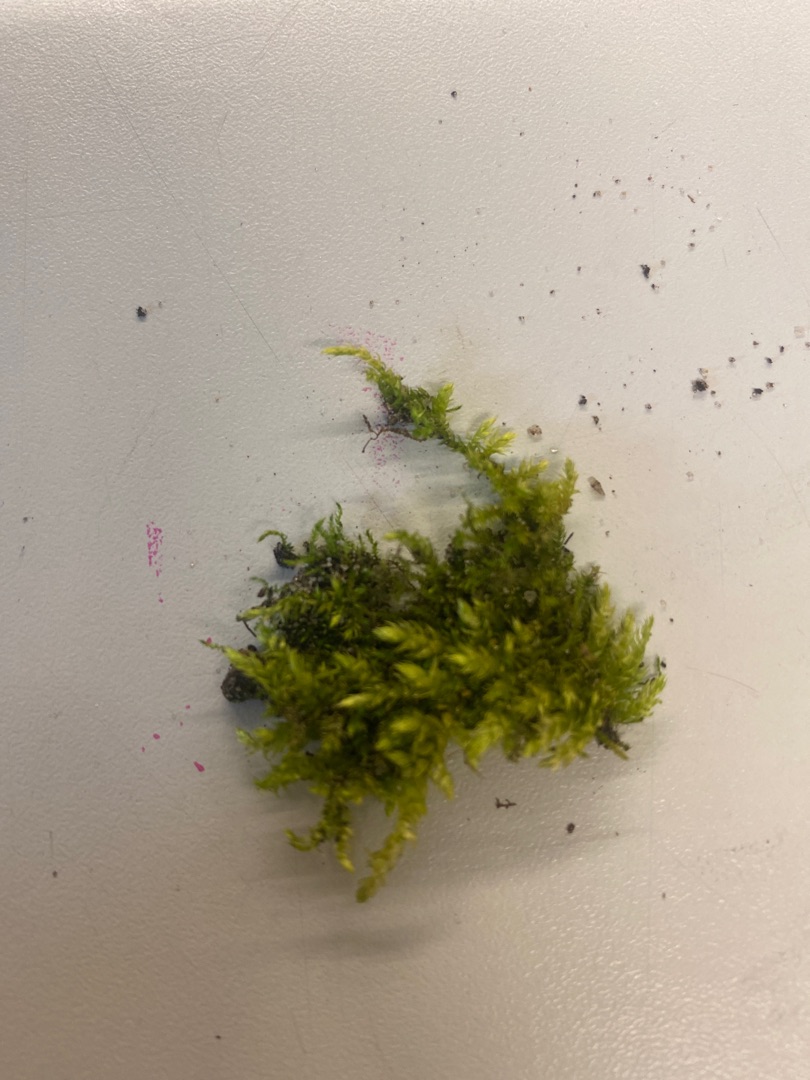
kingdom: Plantae
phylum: Bryophyta
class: Bryopsida
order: Hypnales
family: Brachytheciaceae
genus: Brachythecium
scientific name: Brachythecium rutabulum
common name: Almindelig kortkapsel
